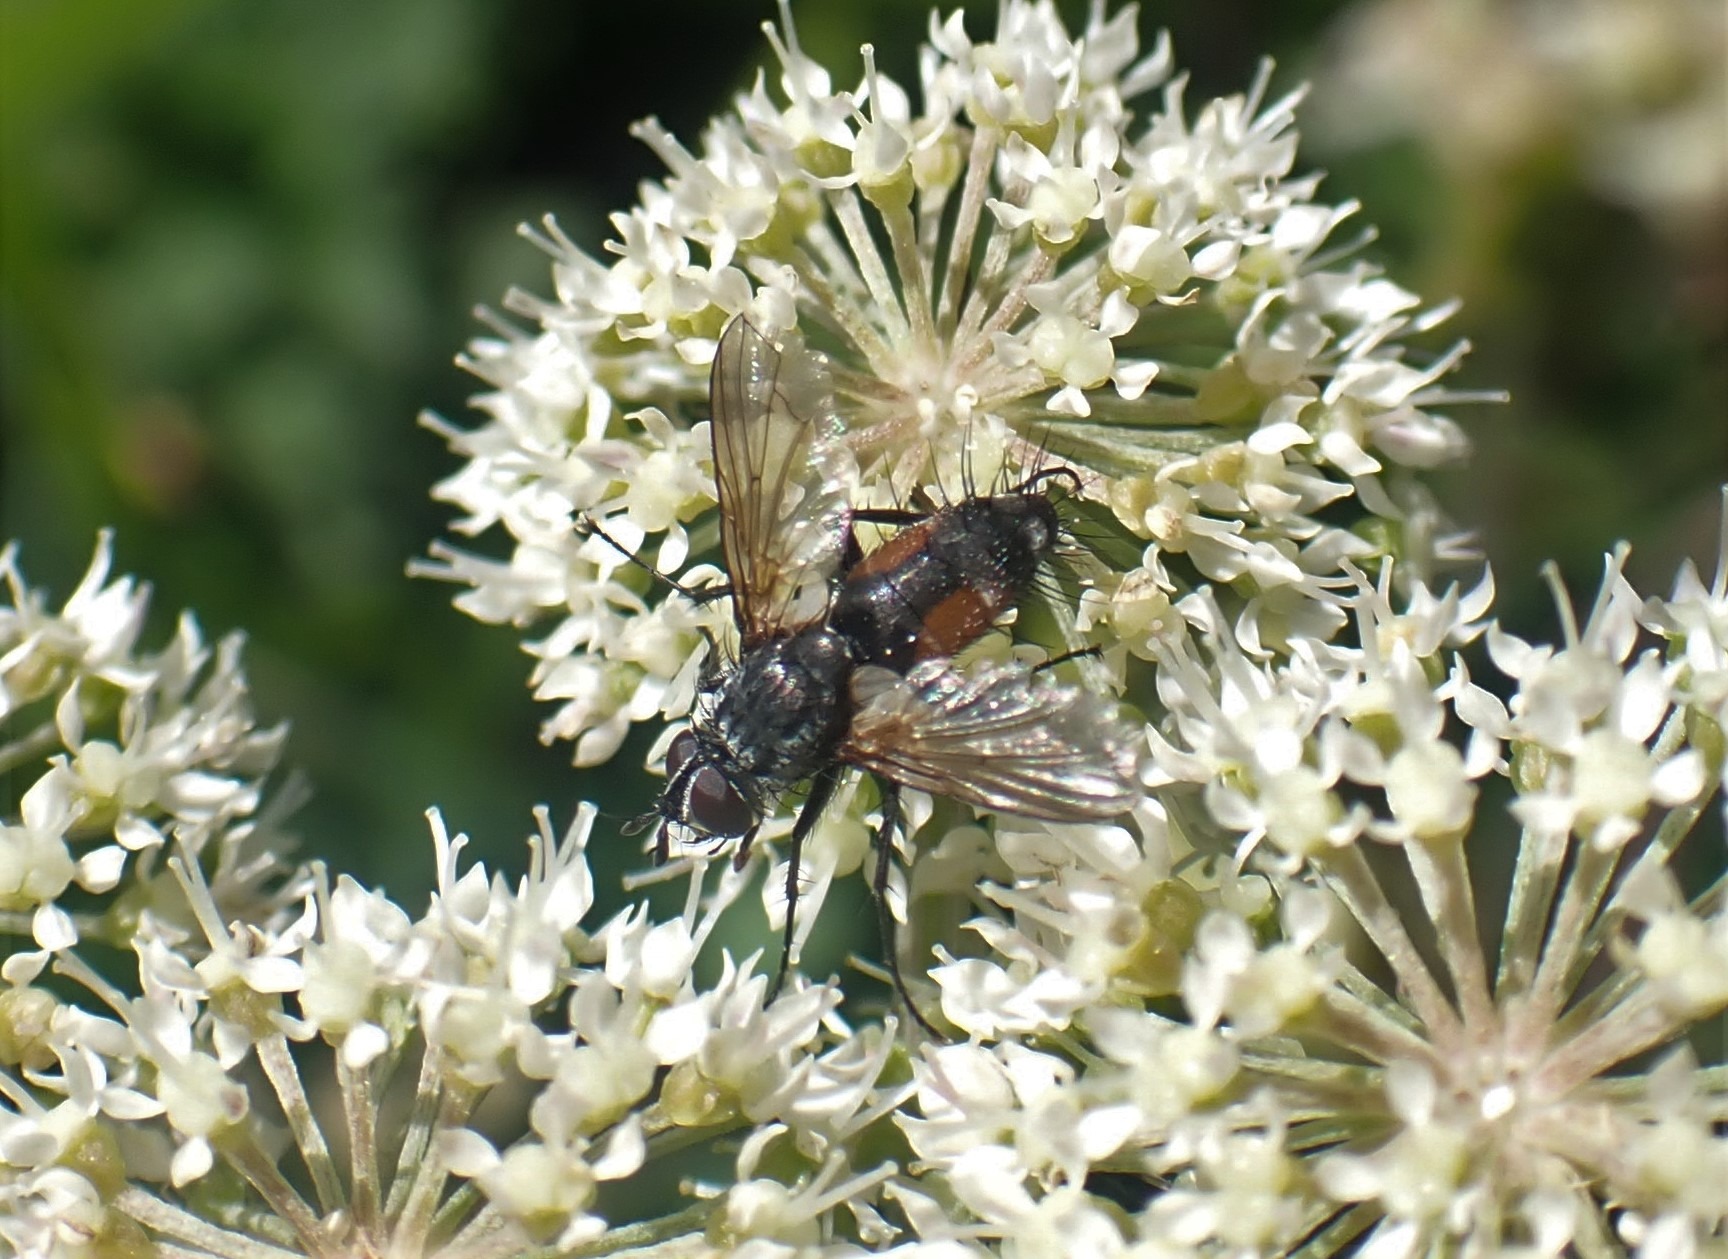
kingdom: Animalia
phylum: Arthropoda
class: Insecta
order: Diptera
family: Tachinidae
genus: Eriothrix
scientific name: Eriothrix rufomaculatus
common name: Rød snylteflue
